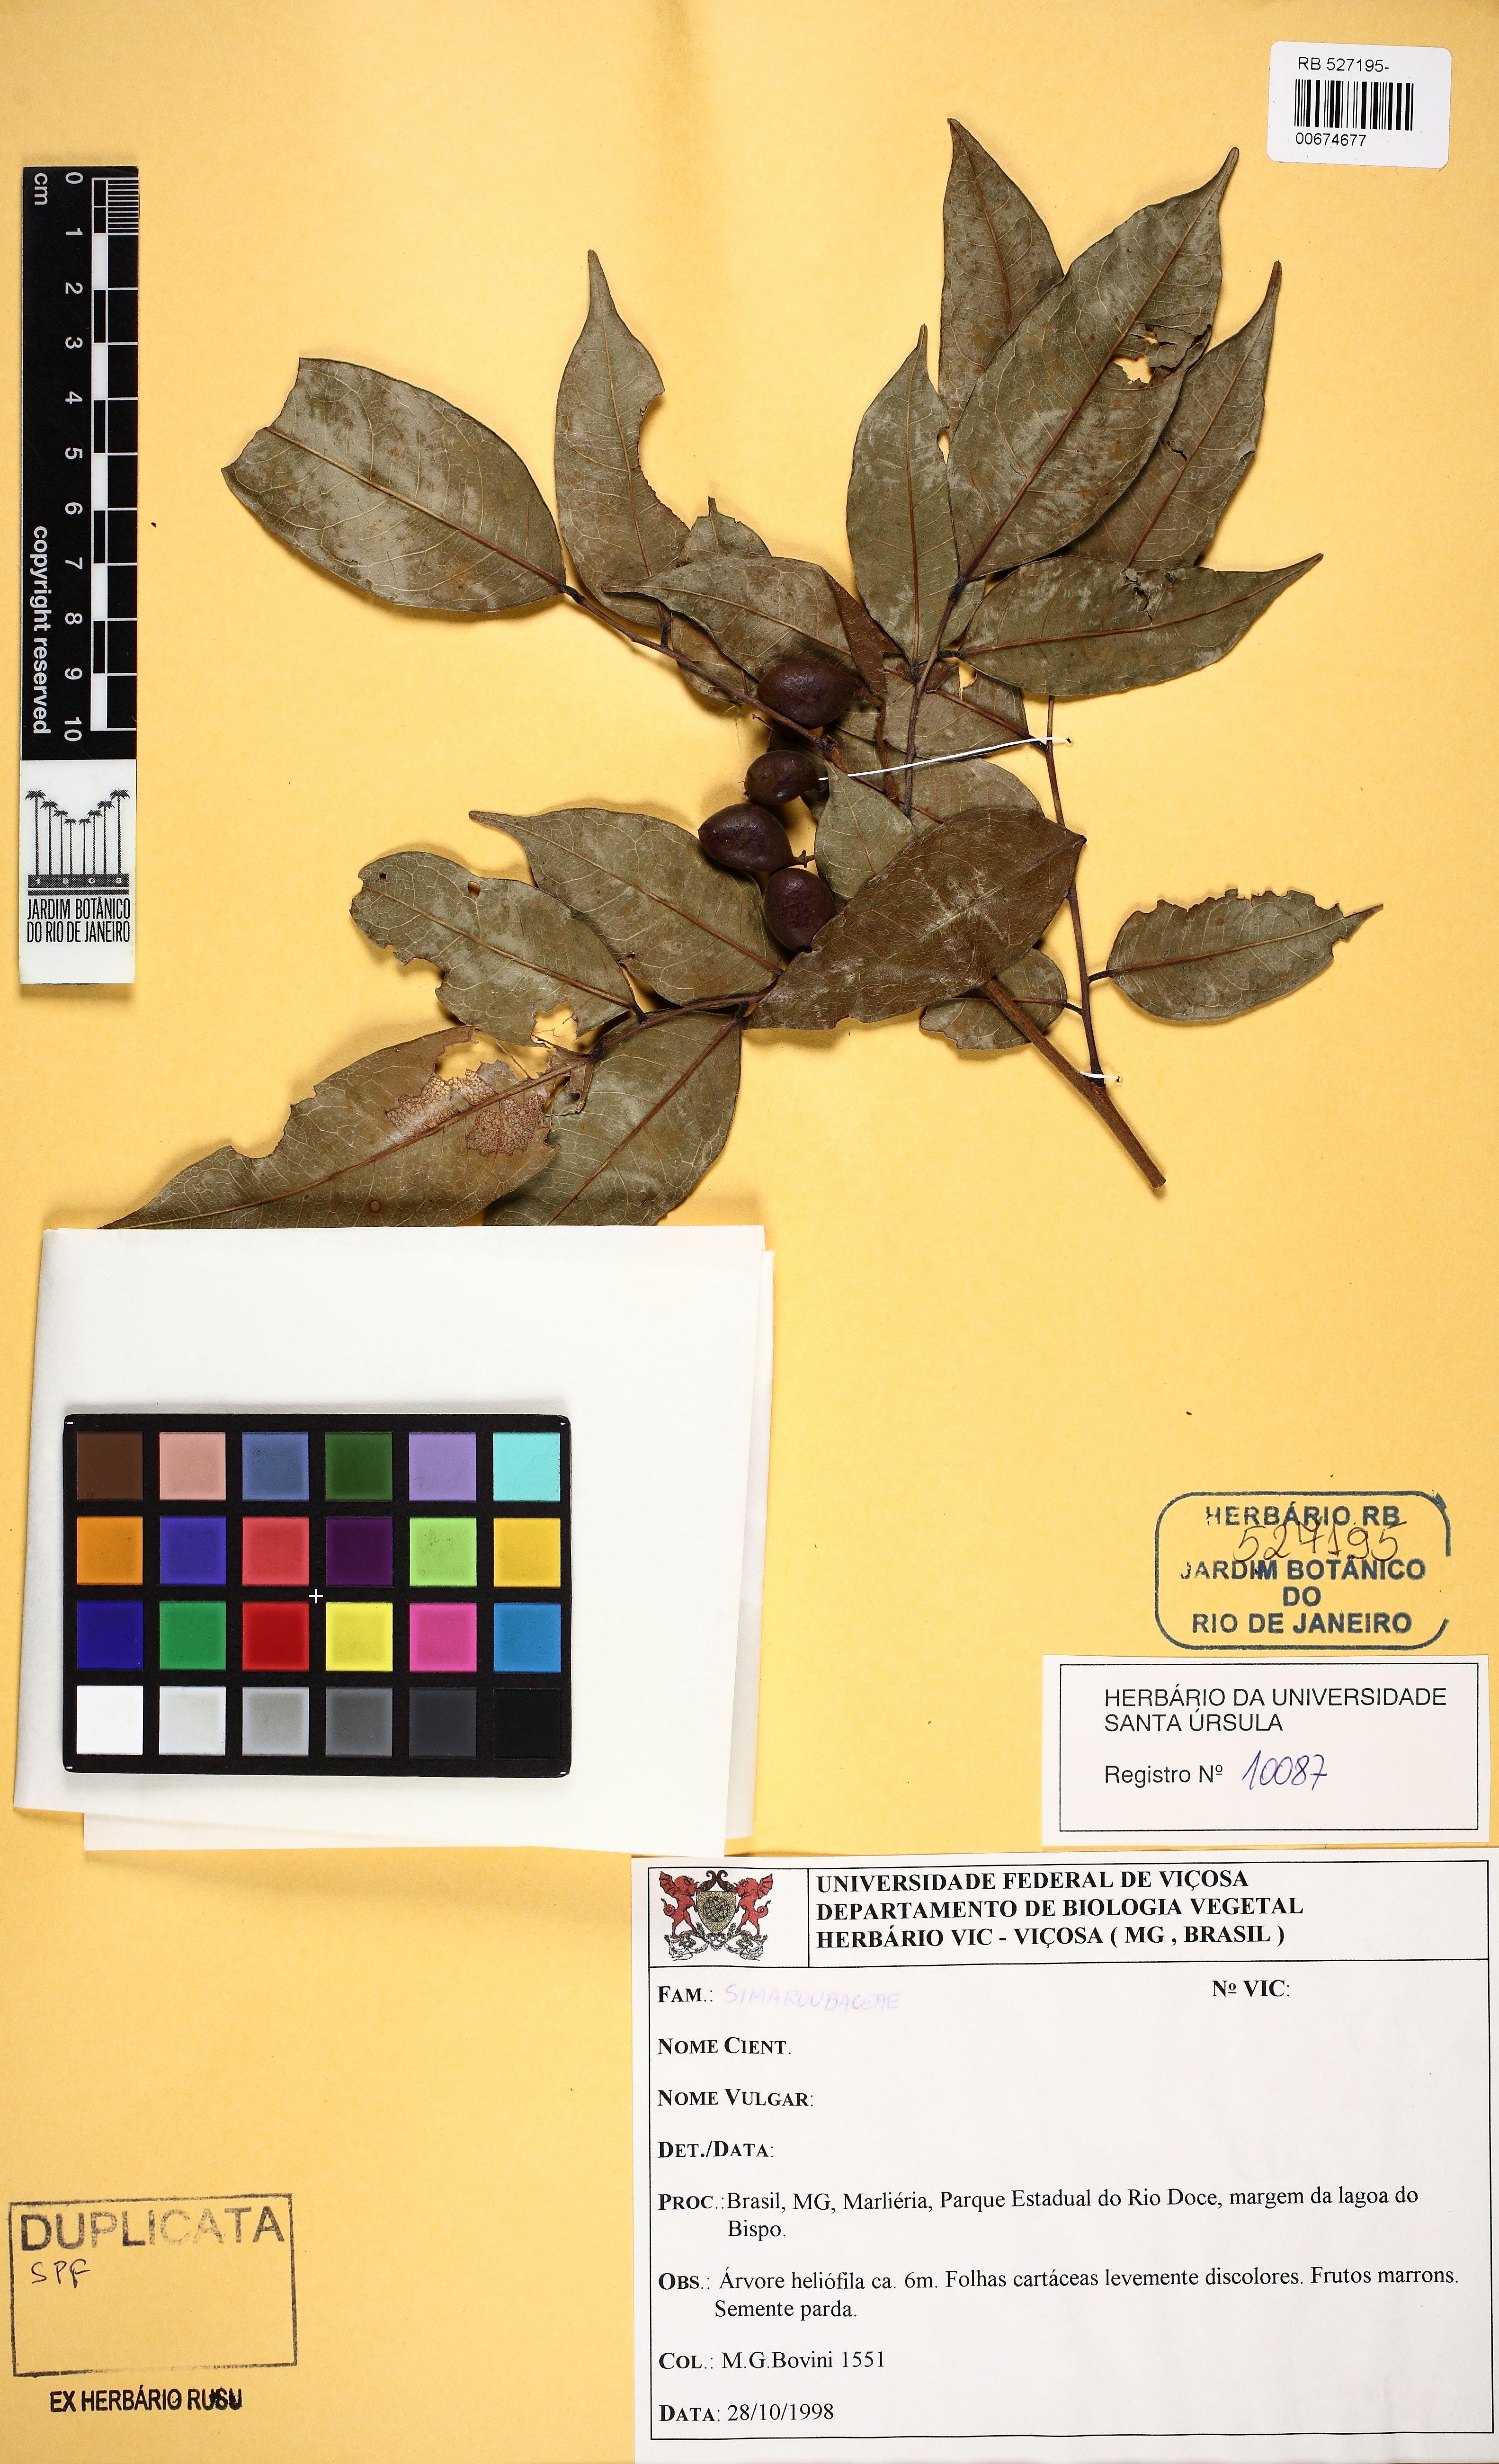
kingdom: Plantae
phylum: Tracheophyta
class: Magnoliopsida
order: Fabales
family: Fabaceae
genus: Dialium
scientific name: Dialium guianense
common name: Ironwood
